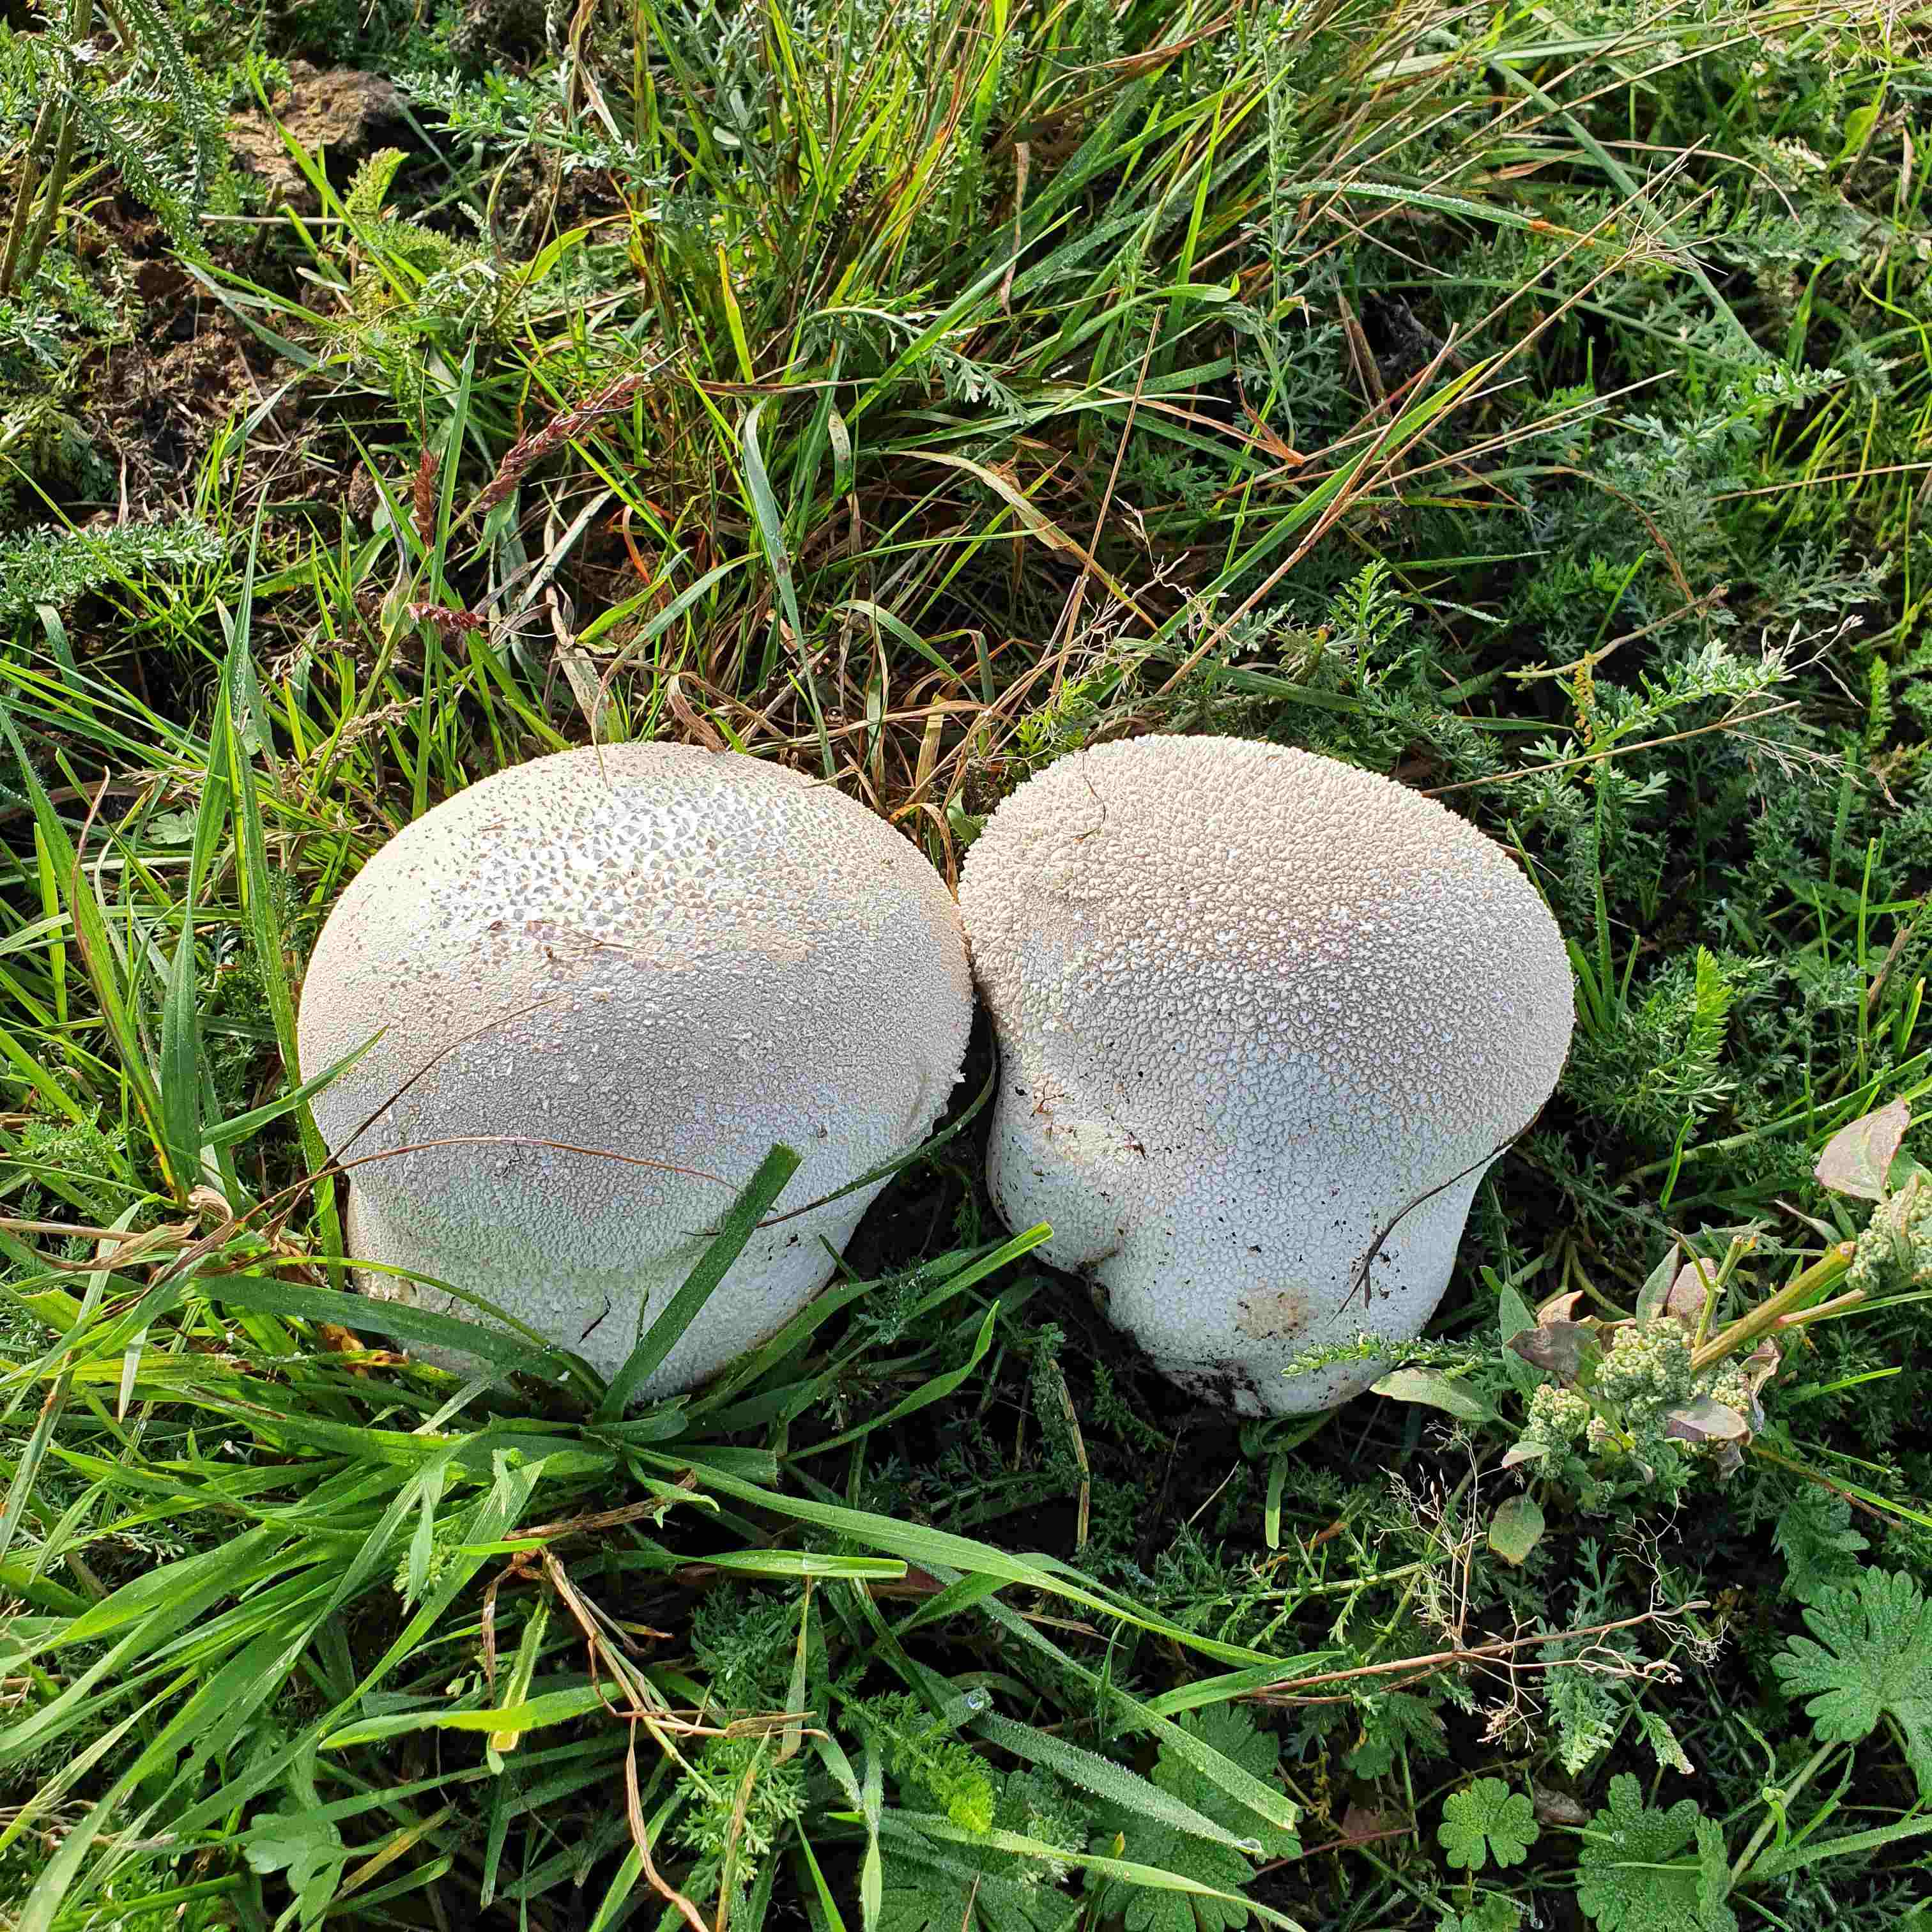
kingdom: Fungi
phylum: Basidiomycota
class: Agaricomycetes
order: Agaricales
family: Lycoperdaceae
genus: Bovistella
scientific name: Bovistella utriformis
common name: skællet støvbold
